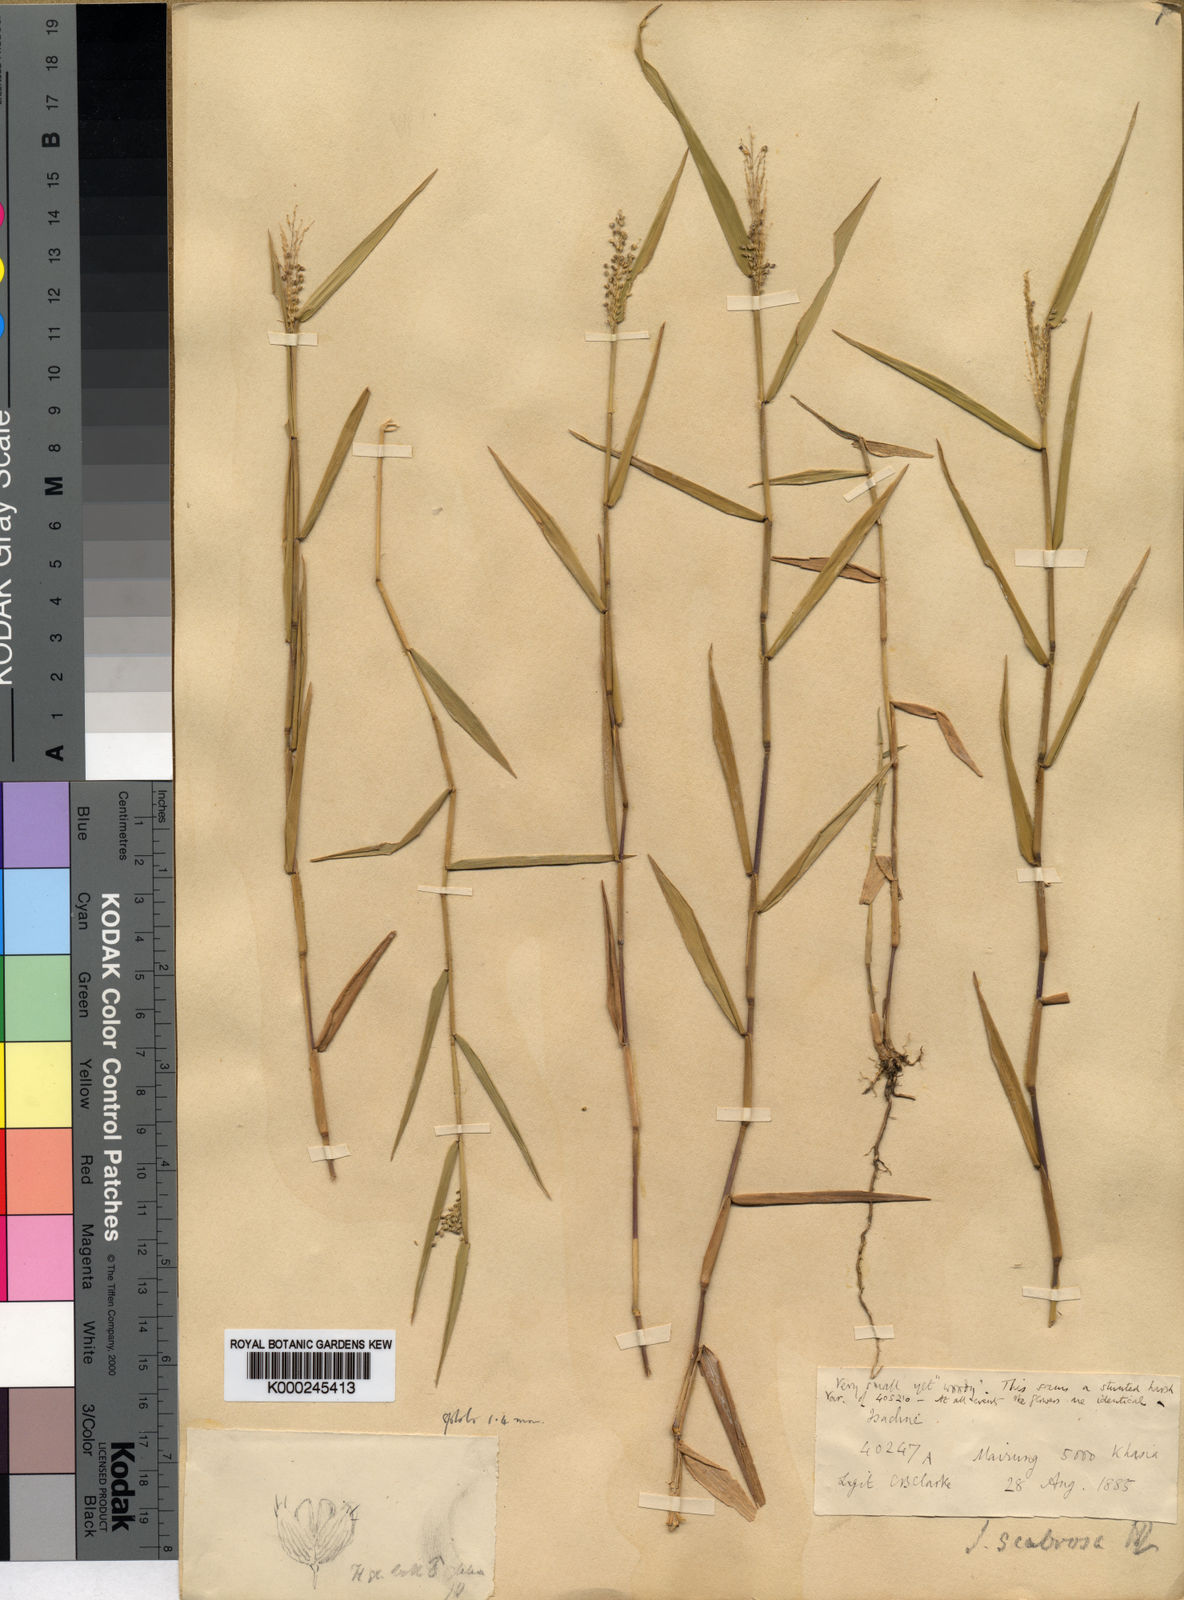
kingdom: Plantae
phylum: Tracheophyta
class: Liliopsida
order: Poales
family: Poaceae
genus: Isachne
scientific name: Isachne scabrosa
